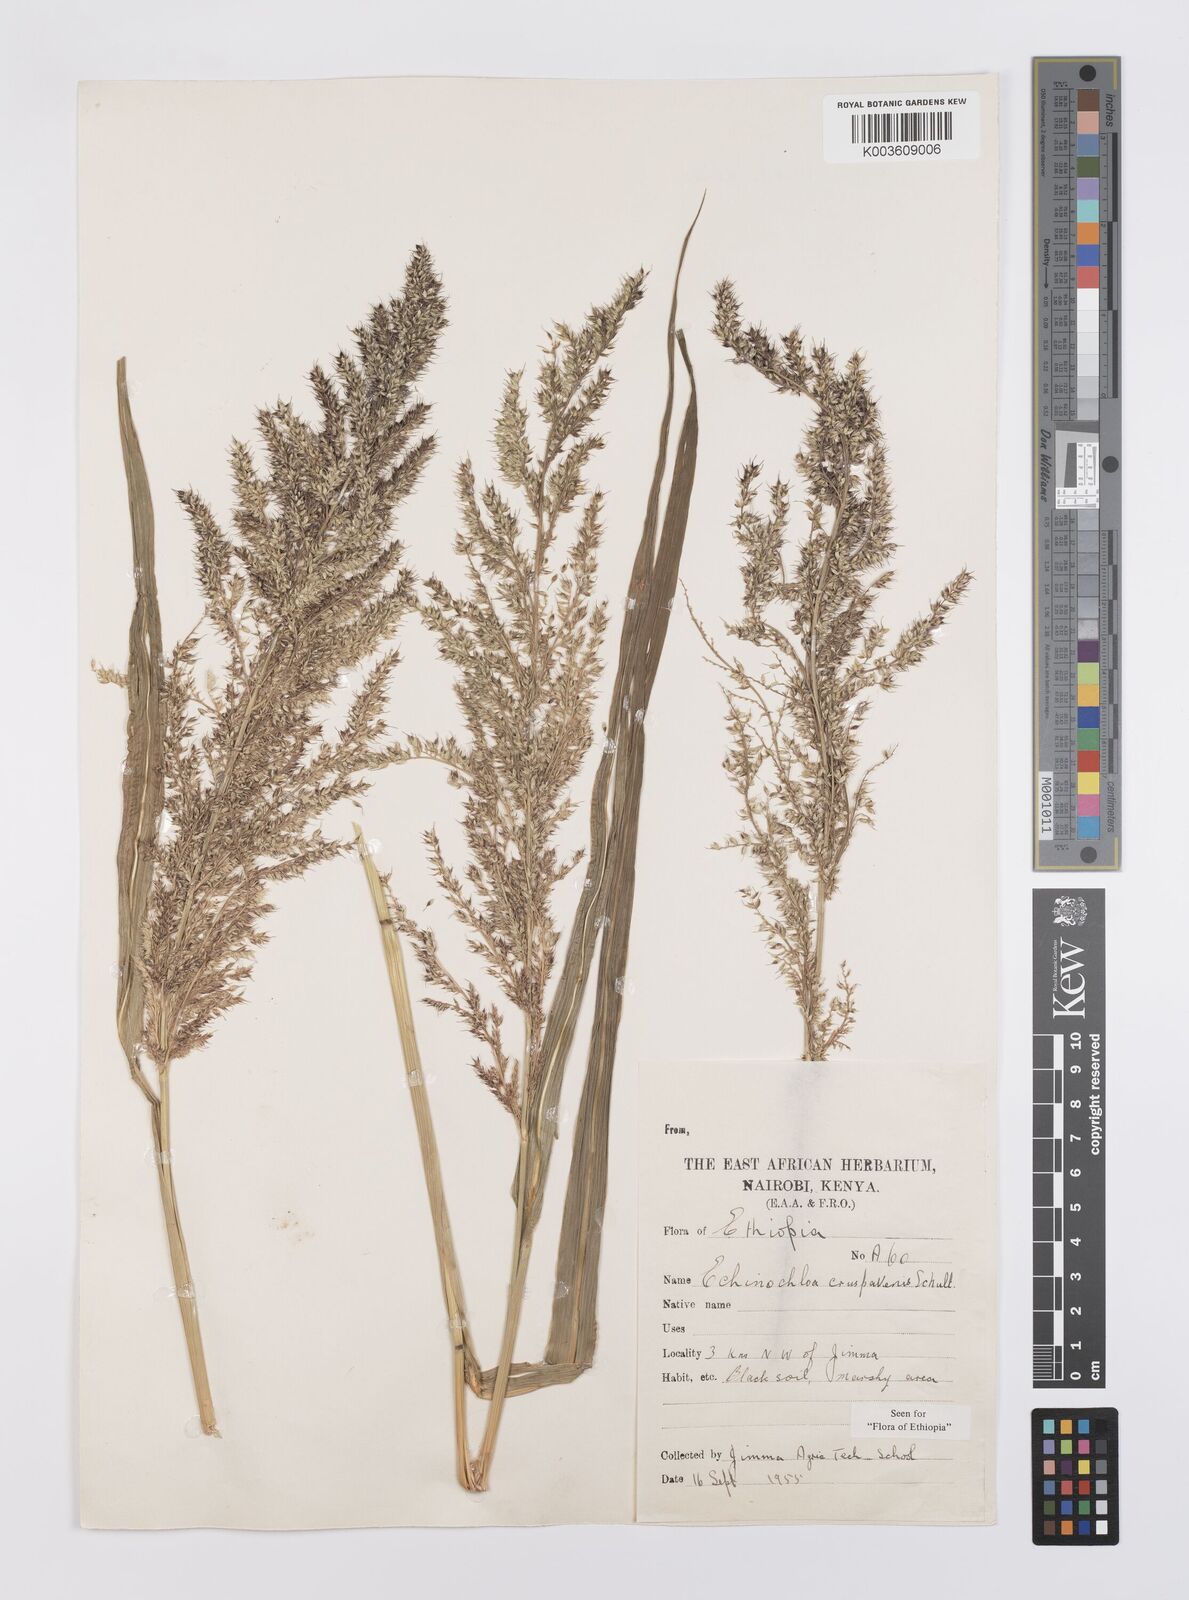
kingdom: Plantae
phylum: Tracheophyta
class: Liliopsida
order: Poales
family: Poaceae
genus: Echinochloa
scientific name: Echinochloa crus-pavonis
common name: Gulf cockspur grass
